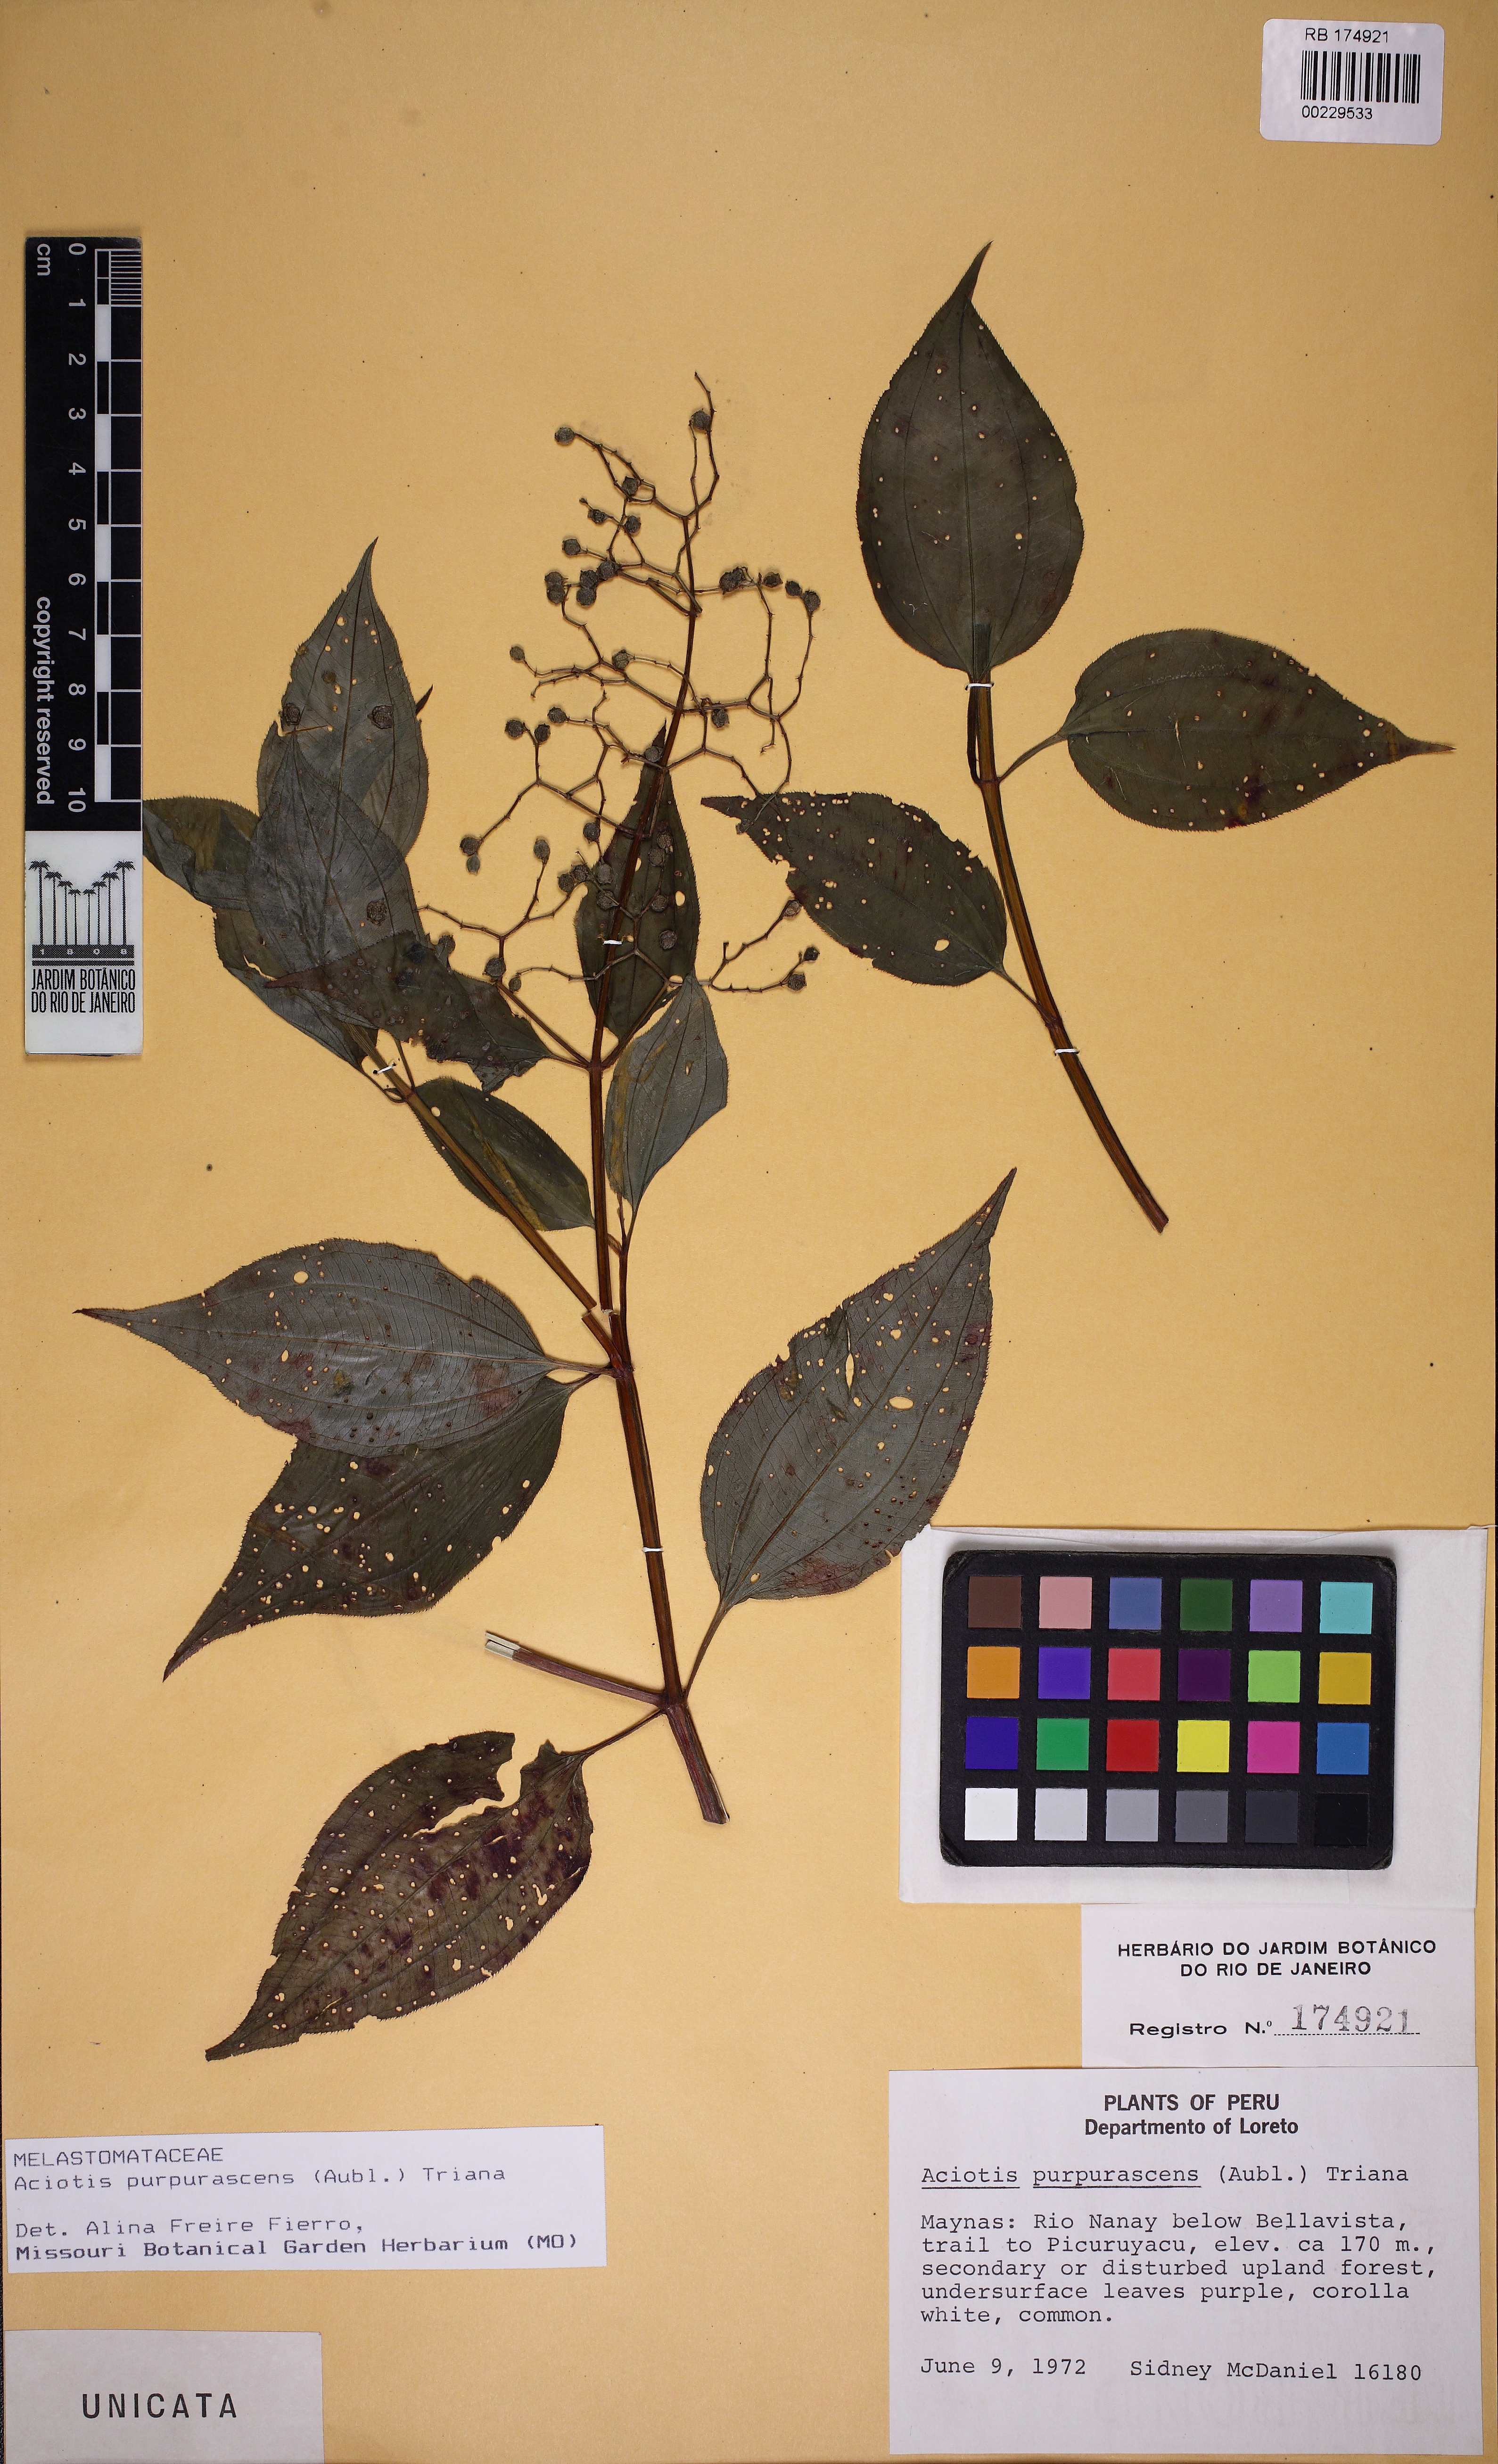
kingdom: Plantae
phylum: Tracheophyta
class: Magnoliopsida
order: Myrtales
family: Melastomataceae
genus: Aciotis
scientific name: Aciotis purpurascens
